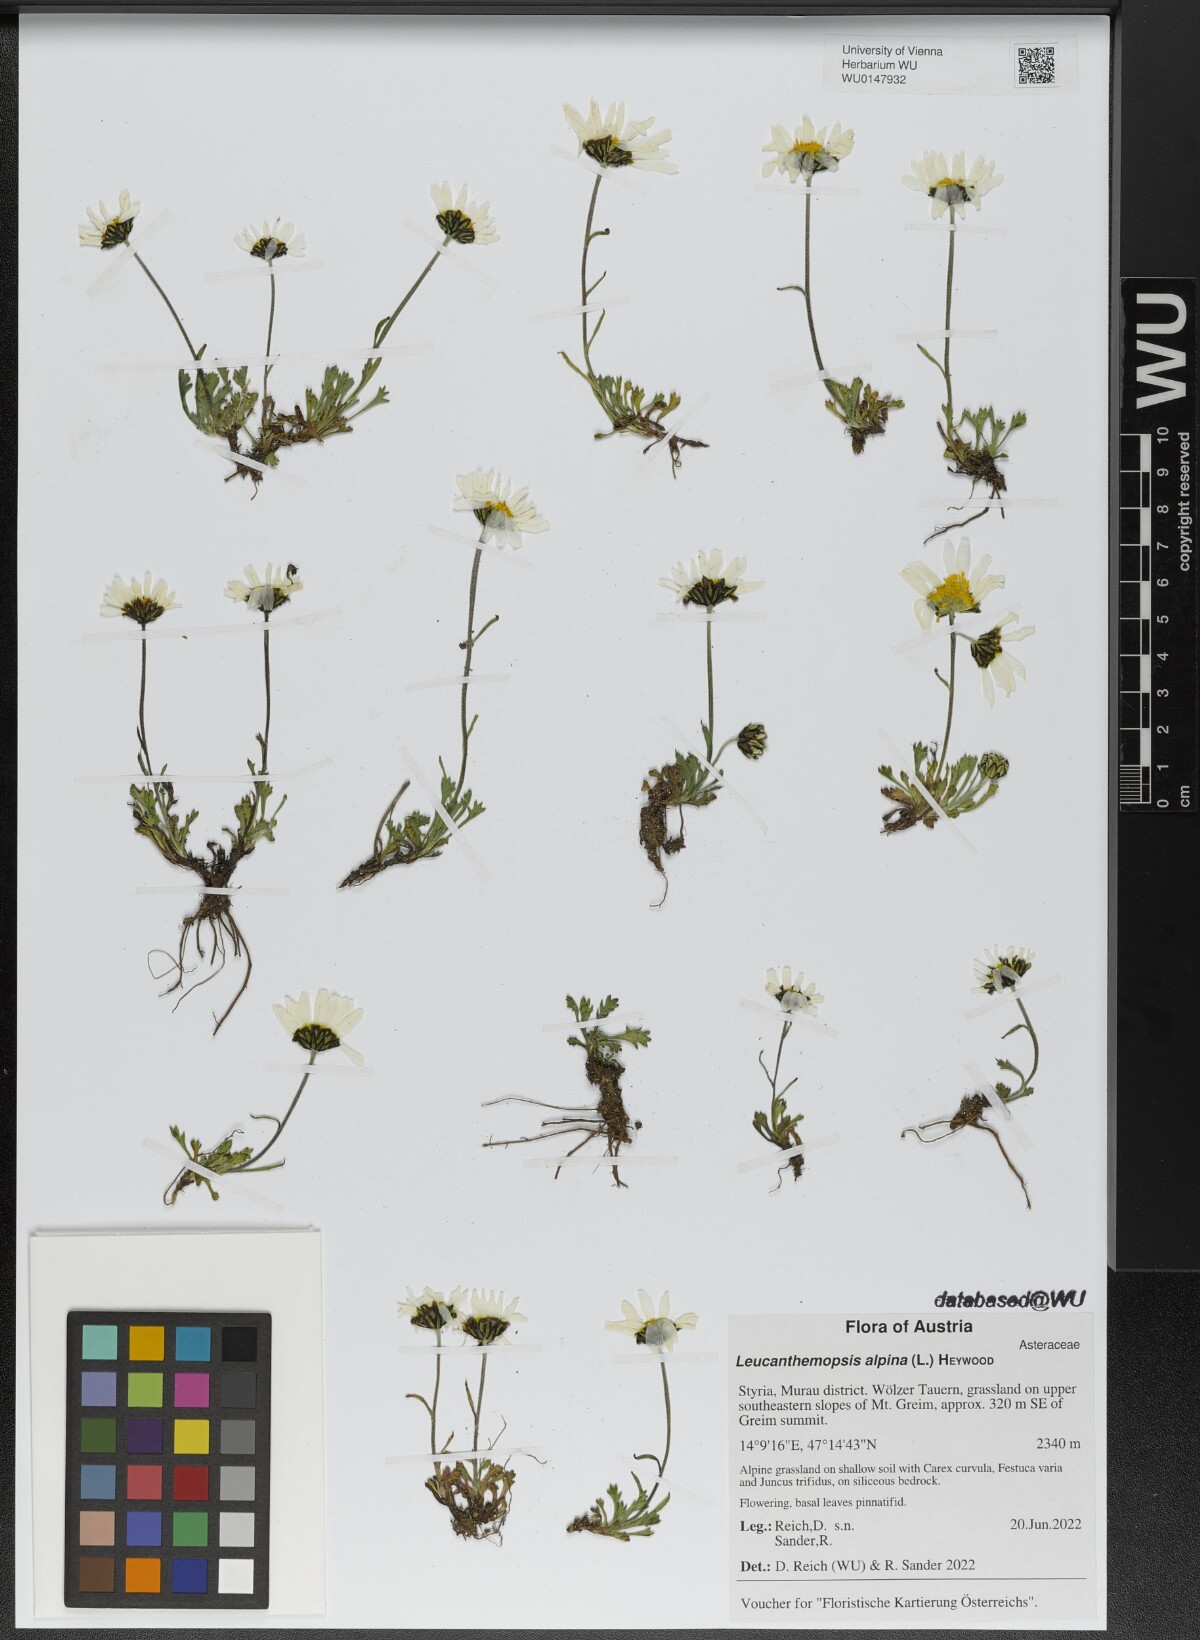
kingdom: Plantae
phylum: Tracheophyta
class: Magnoliopsida
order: Asterales
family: Asteraceae
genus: Leucanthemopsis
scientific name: Leucanthemopsis alpina
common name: Alpine moon daisy
